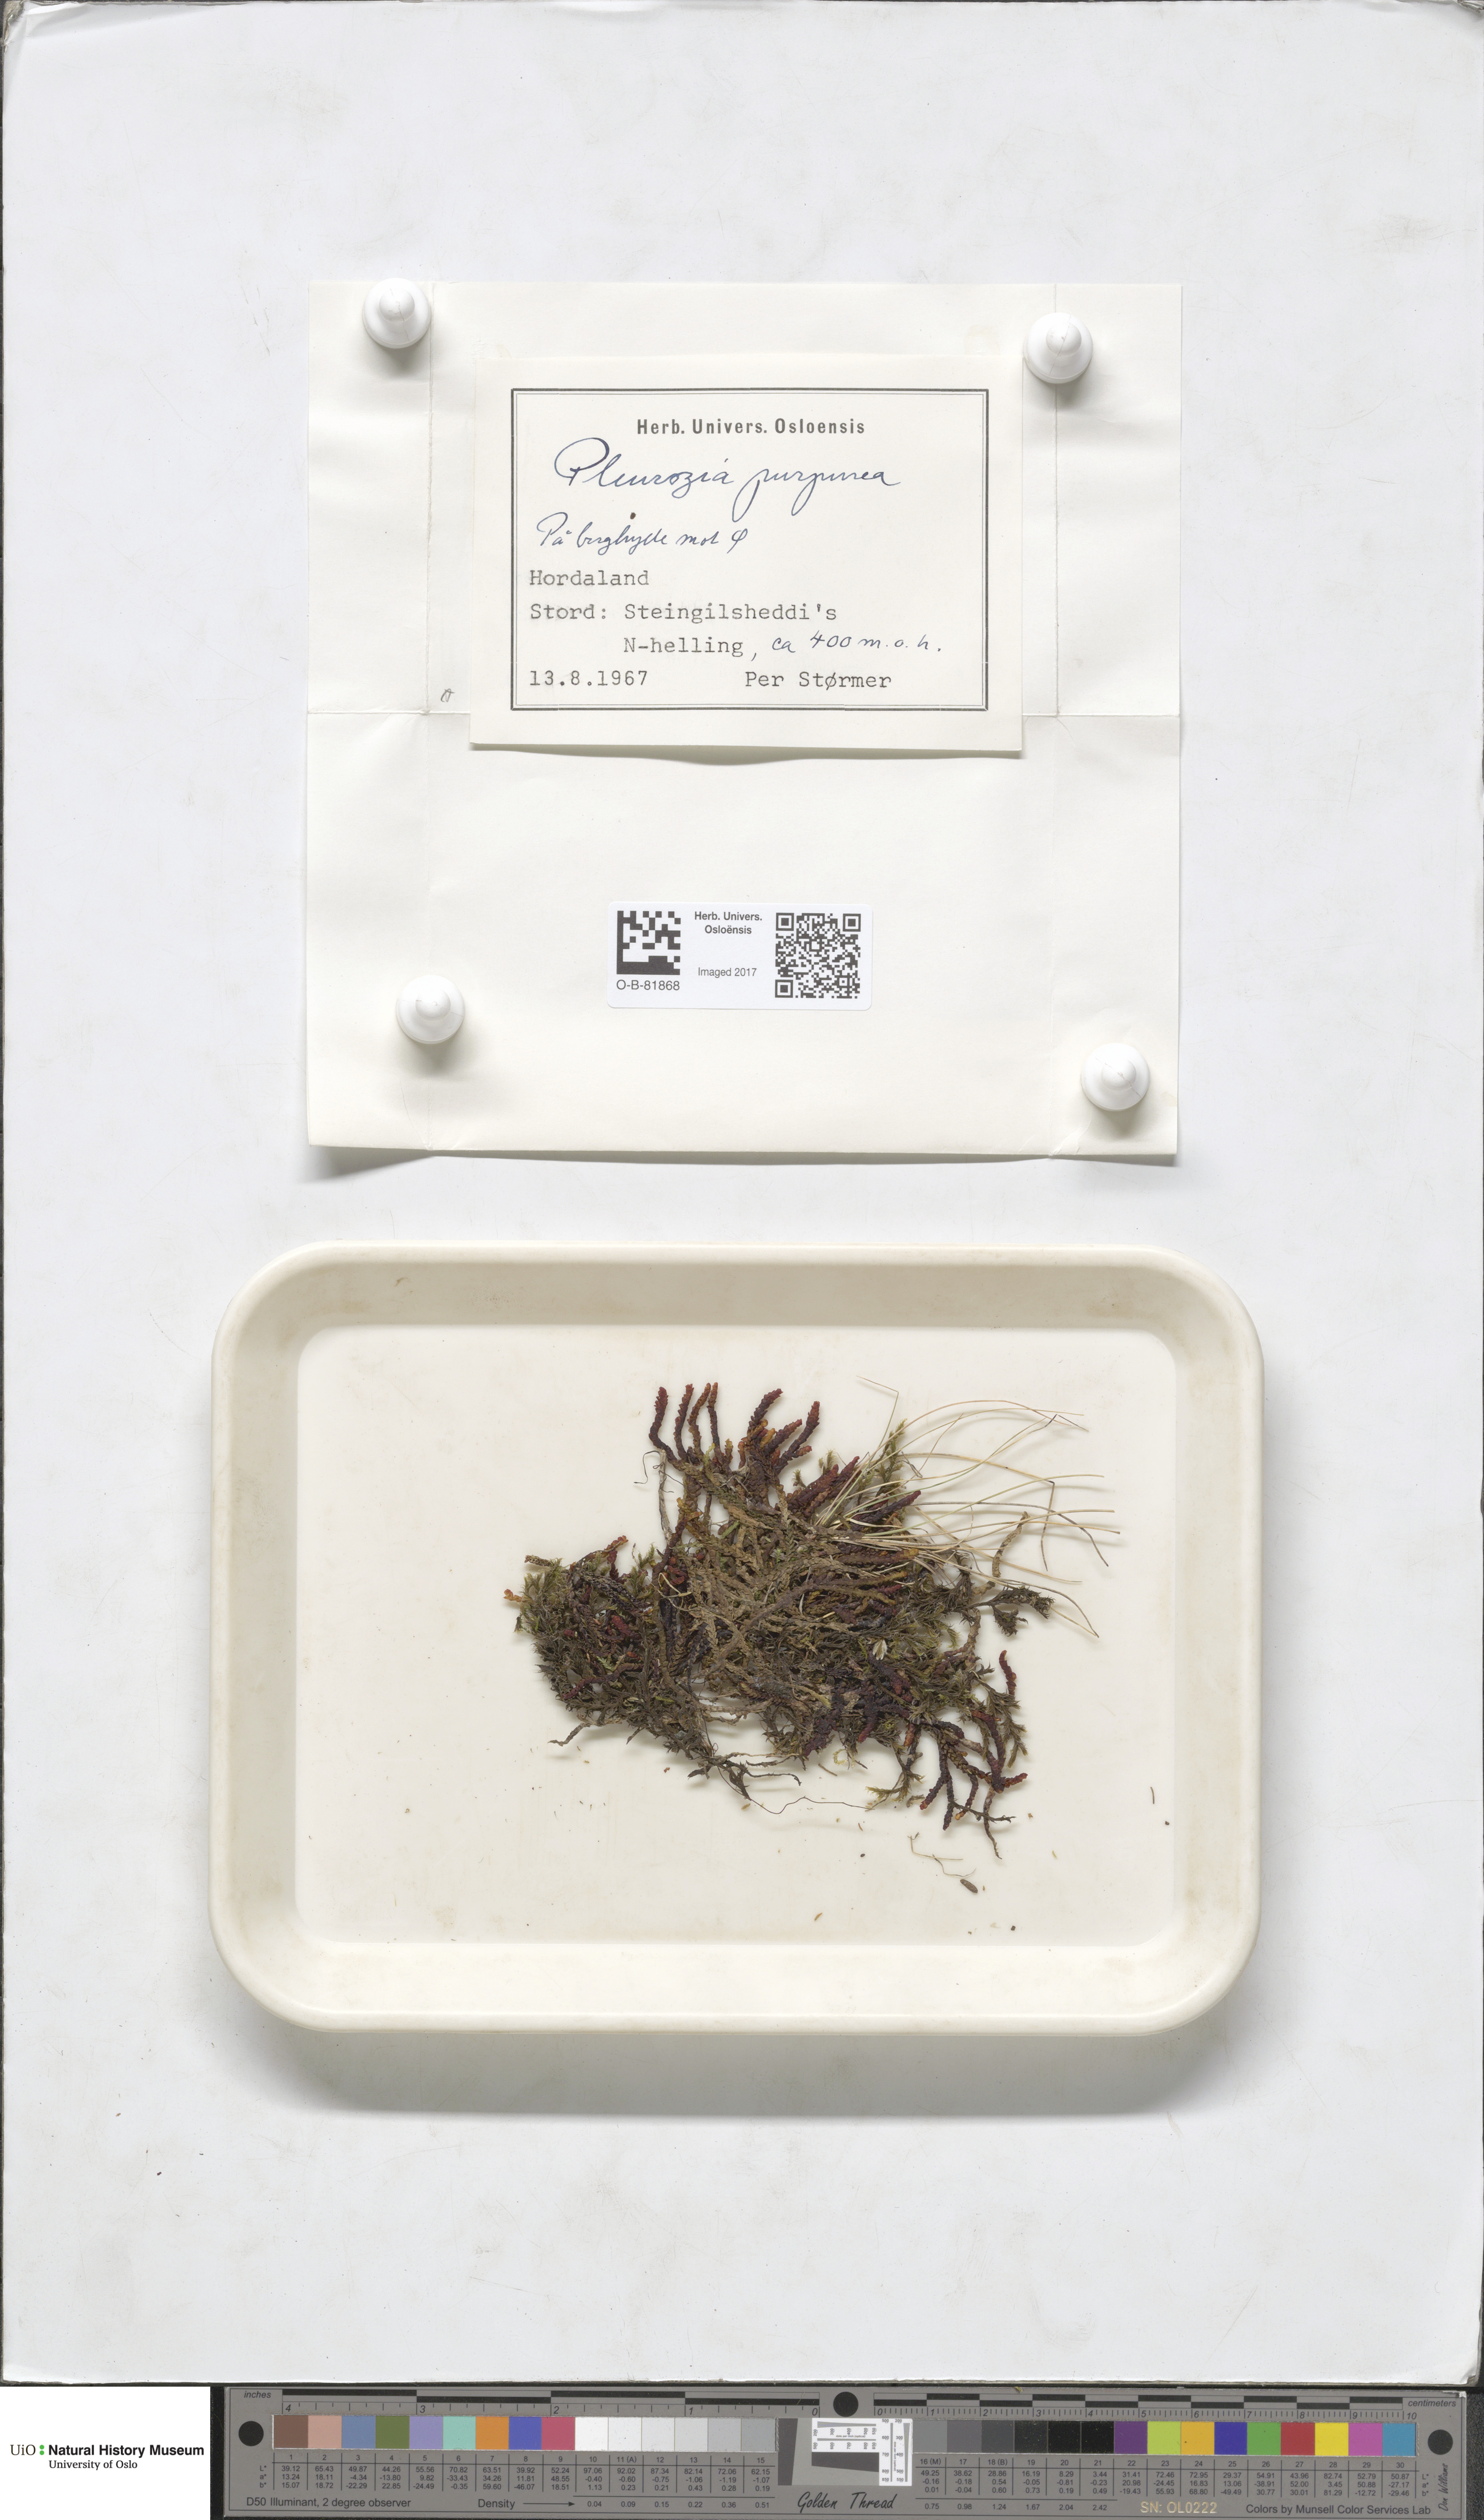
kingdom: Plantae
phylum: Marchantiophyta
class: Jungermanniopsida
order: Pleuroziales
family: Pleuroziaceae
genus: Pleurozia
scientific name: Pleurozia purpurea
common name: Purple spoonwort
